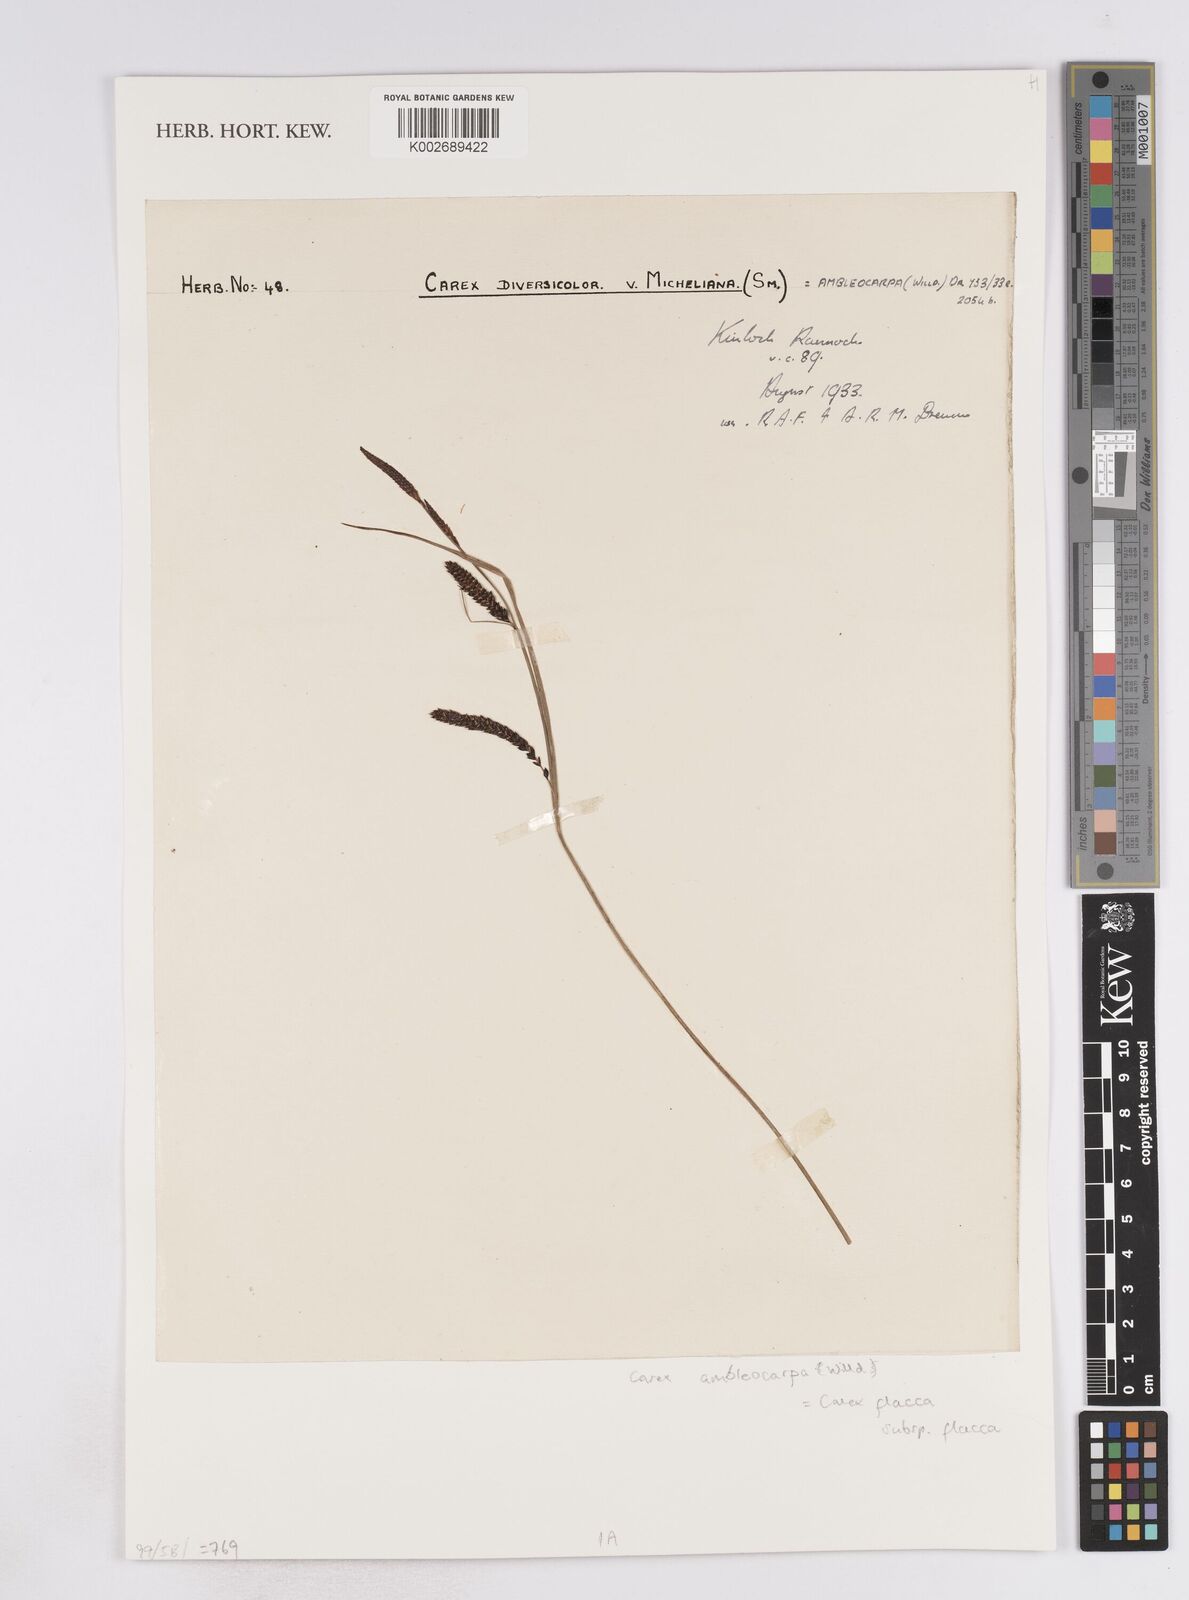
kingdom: Plantae
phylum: Tracheophyta
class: Liliopsida
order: Poales
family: Cyperaceae
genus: Carex
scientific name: Carex flacca
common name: Glaucous sedge
